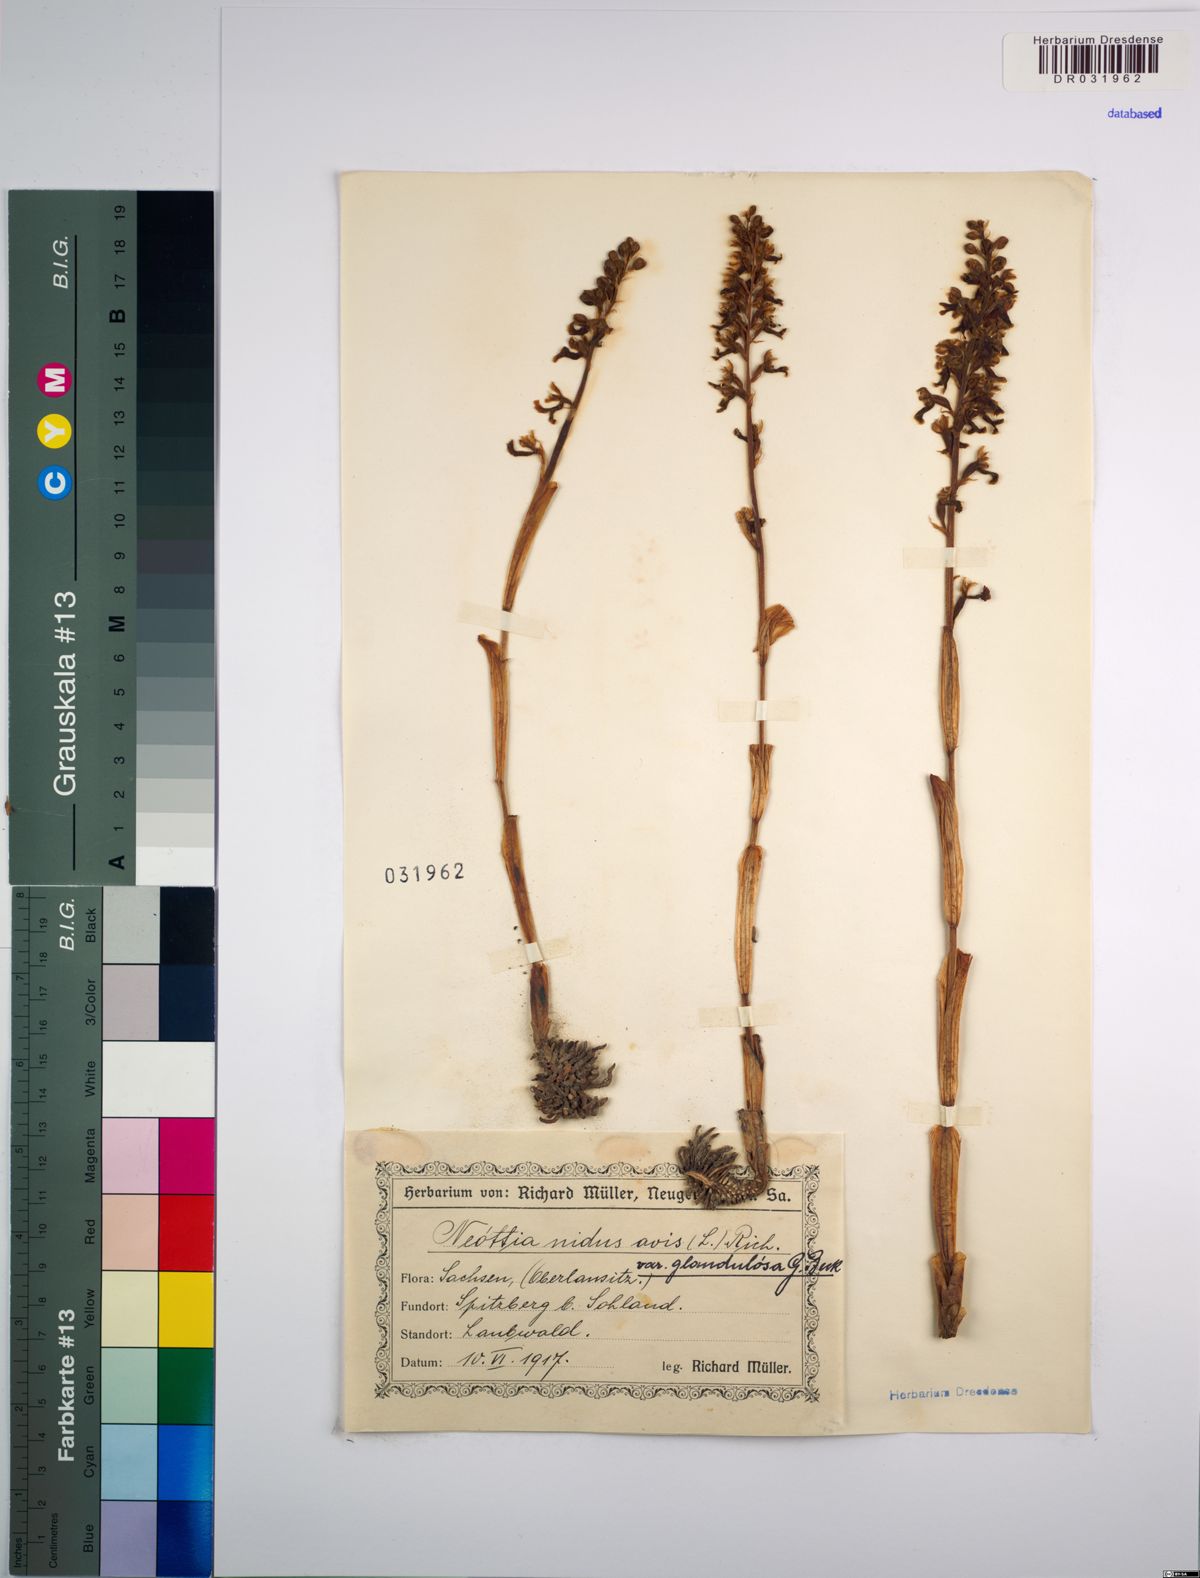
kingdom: Plantae
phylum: Tracheophyta
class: Liliopsida
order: Asparagales
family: Orchidaceae
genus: Neottia
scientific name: Neottia nidus-avis
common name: Bird's-nest orchid
